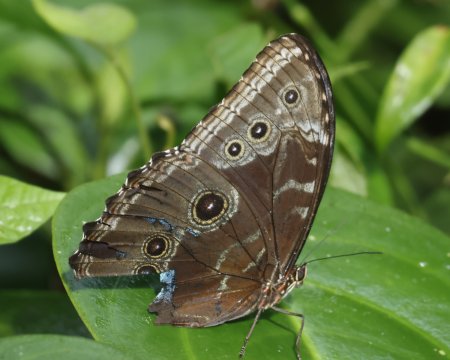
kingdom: Animalia
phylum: Arthropoda
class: Insecta
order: Lepidoptera
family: Nymphalidae
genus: Morpho
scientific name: Morpho helenor
